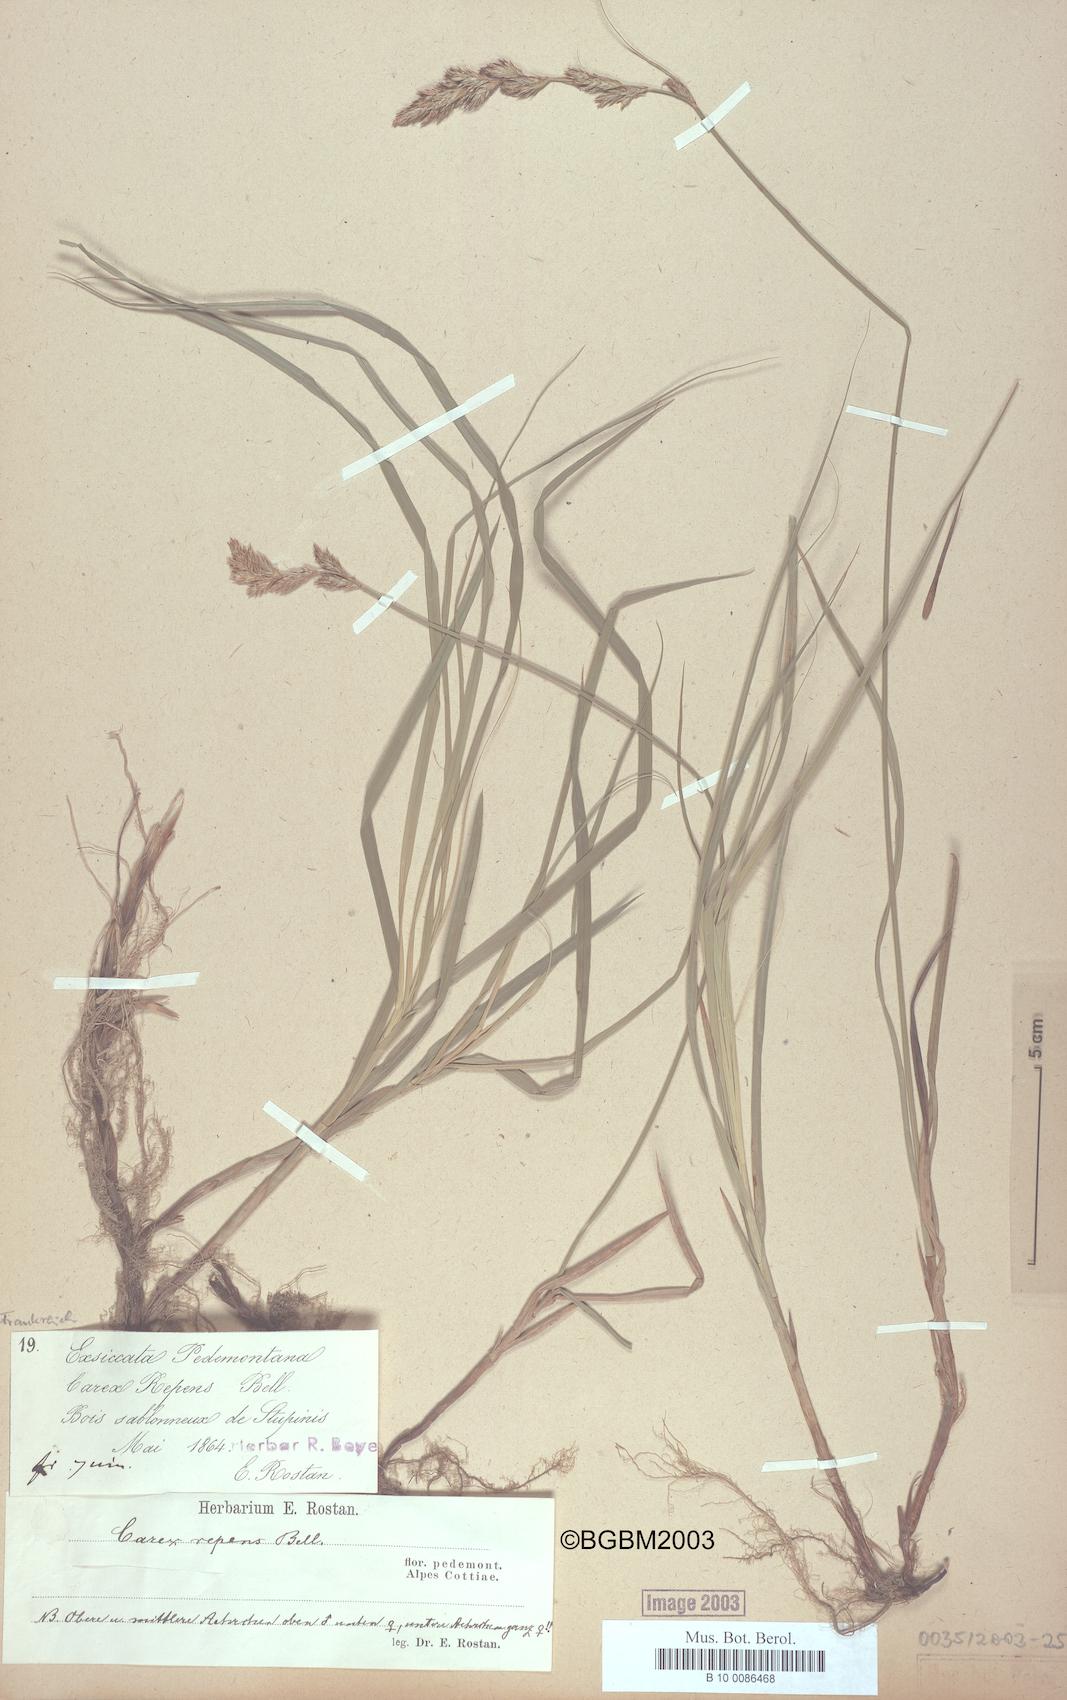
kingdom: Plantae
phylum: Tracheophyta
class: Liliopsida
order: Poales
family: Cyperaceae
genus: Carex
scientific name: Carex repens
